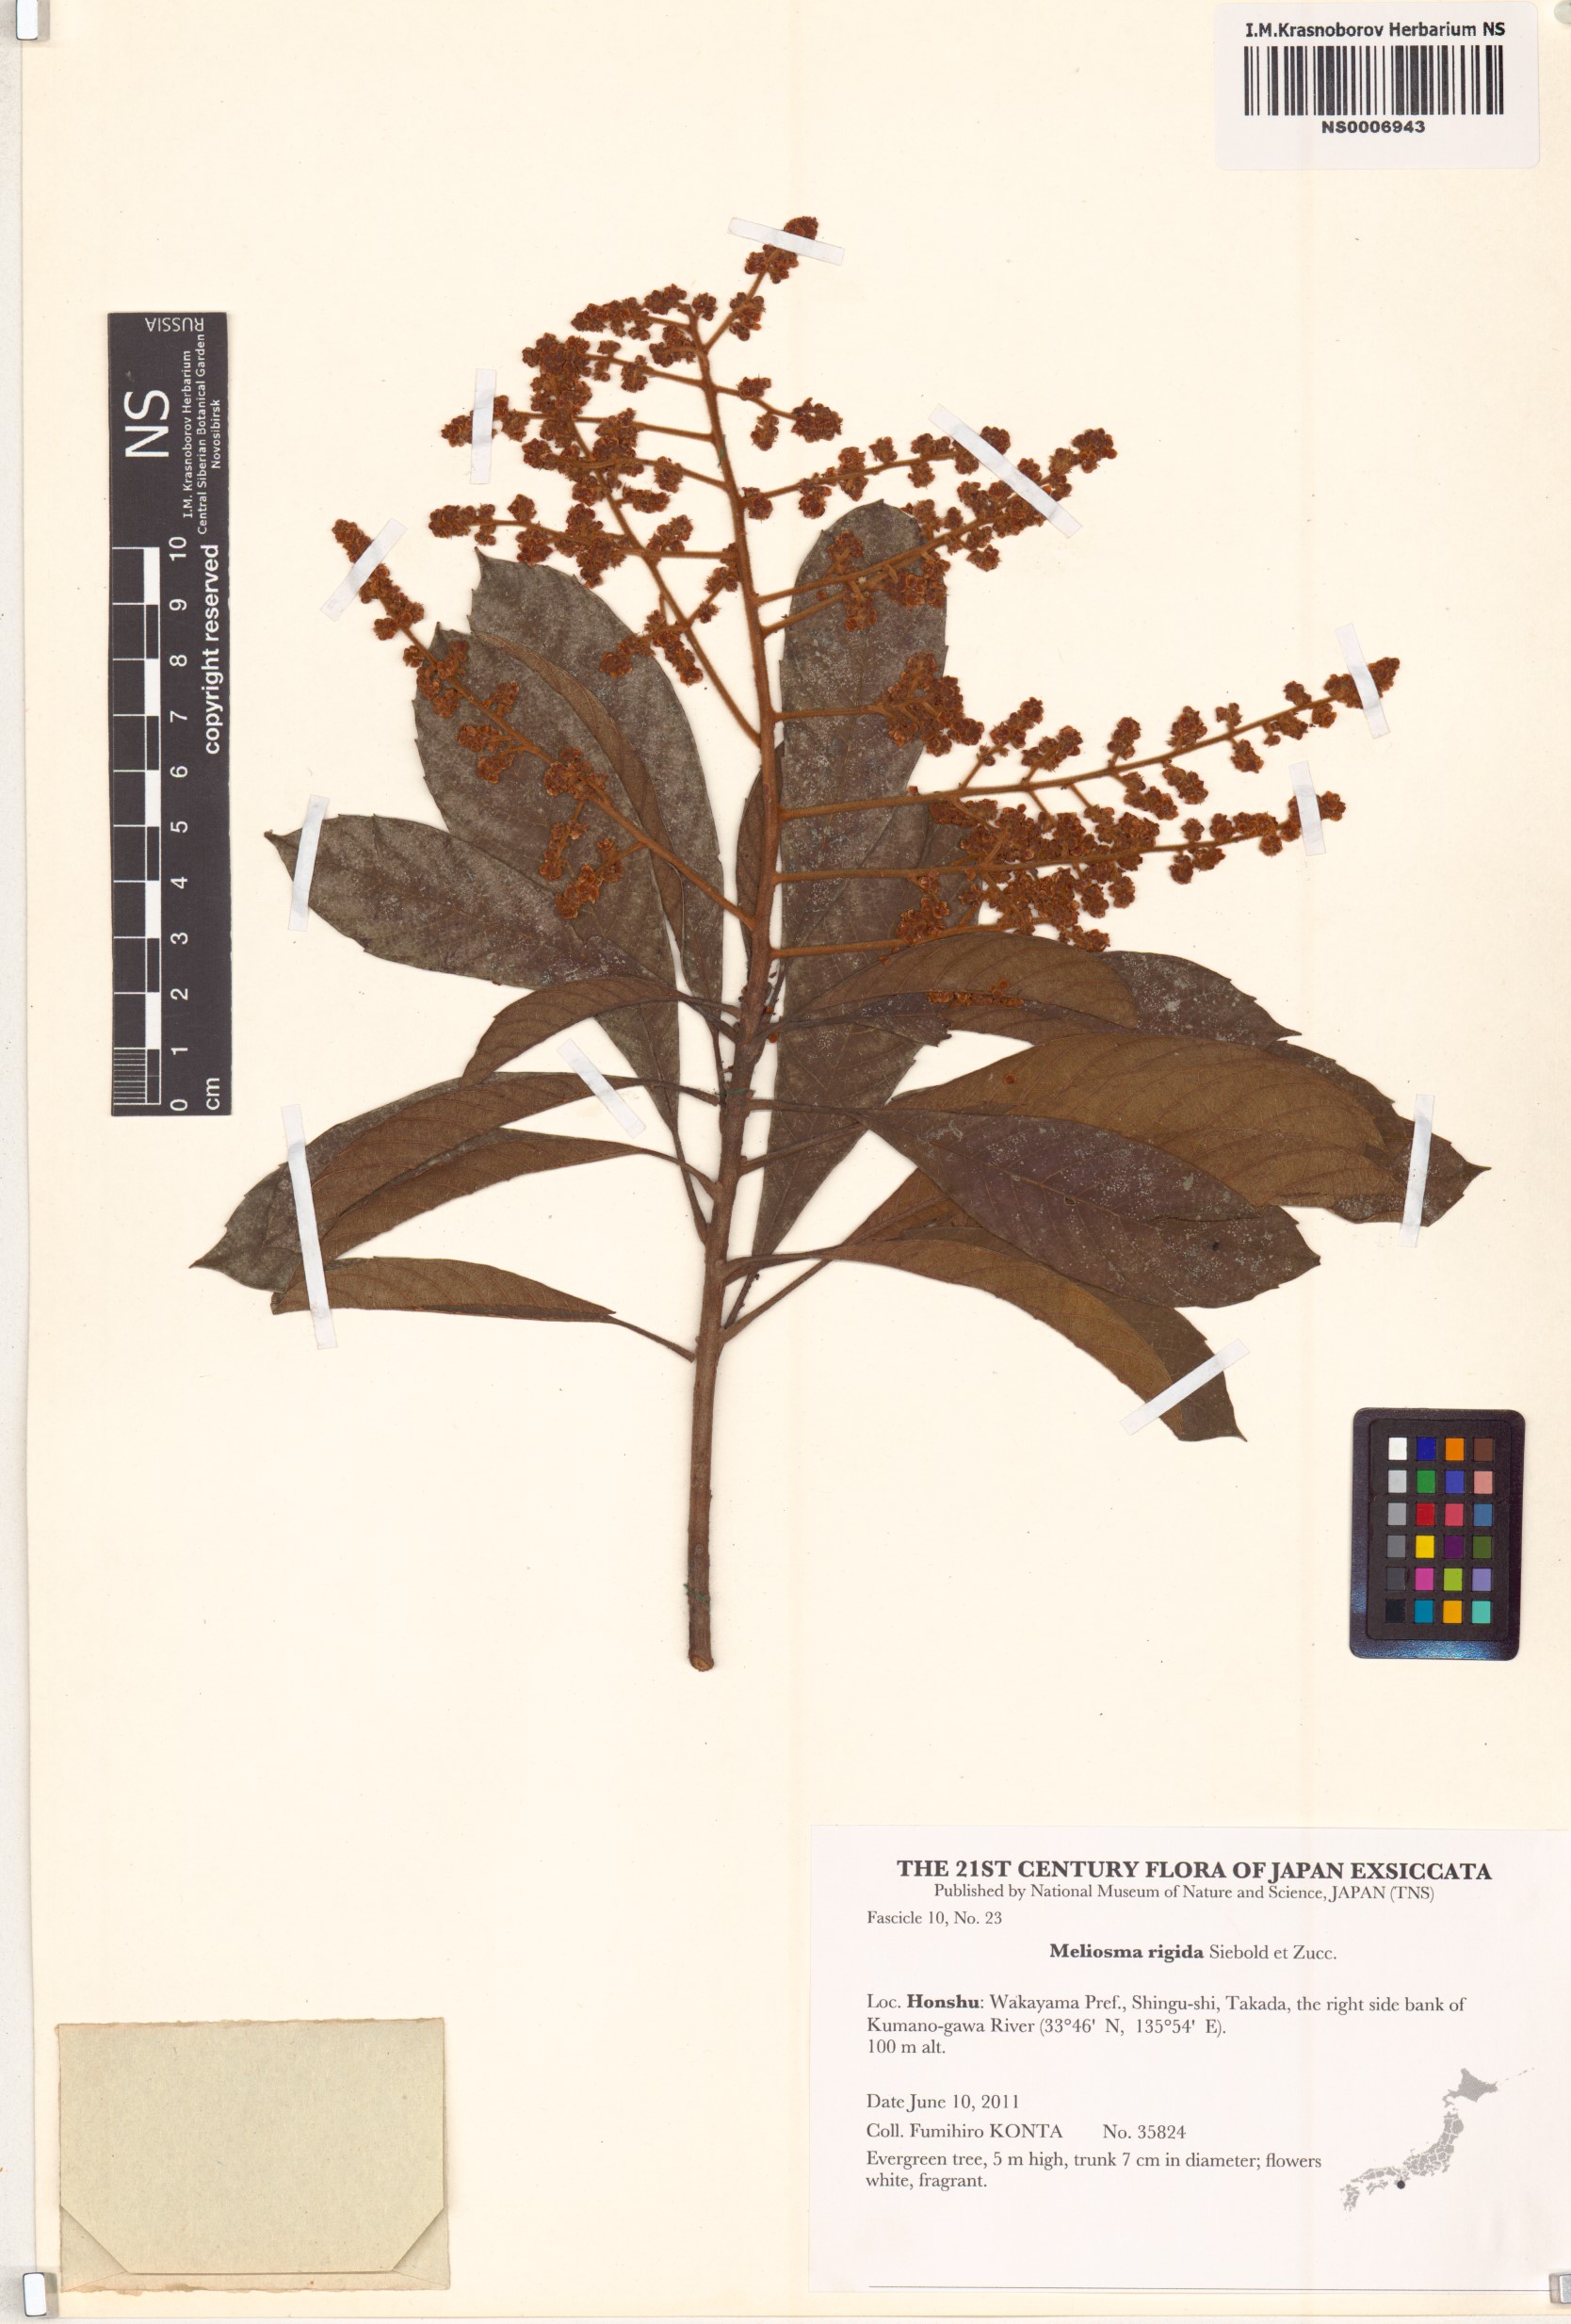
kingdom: Plantae
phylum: Tracheophyta
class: Magnoliopsida
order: Proteales
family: Sabiaceae
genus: Meliosma
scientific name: Meliosma rigida
